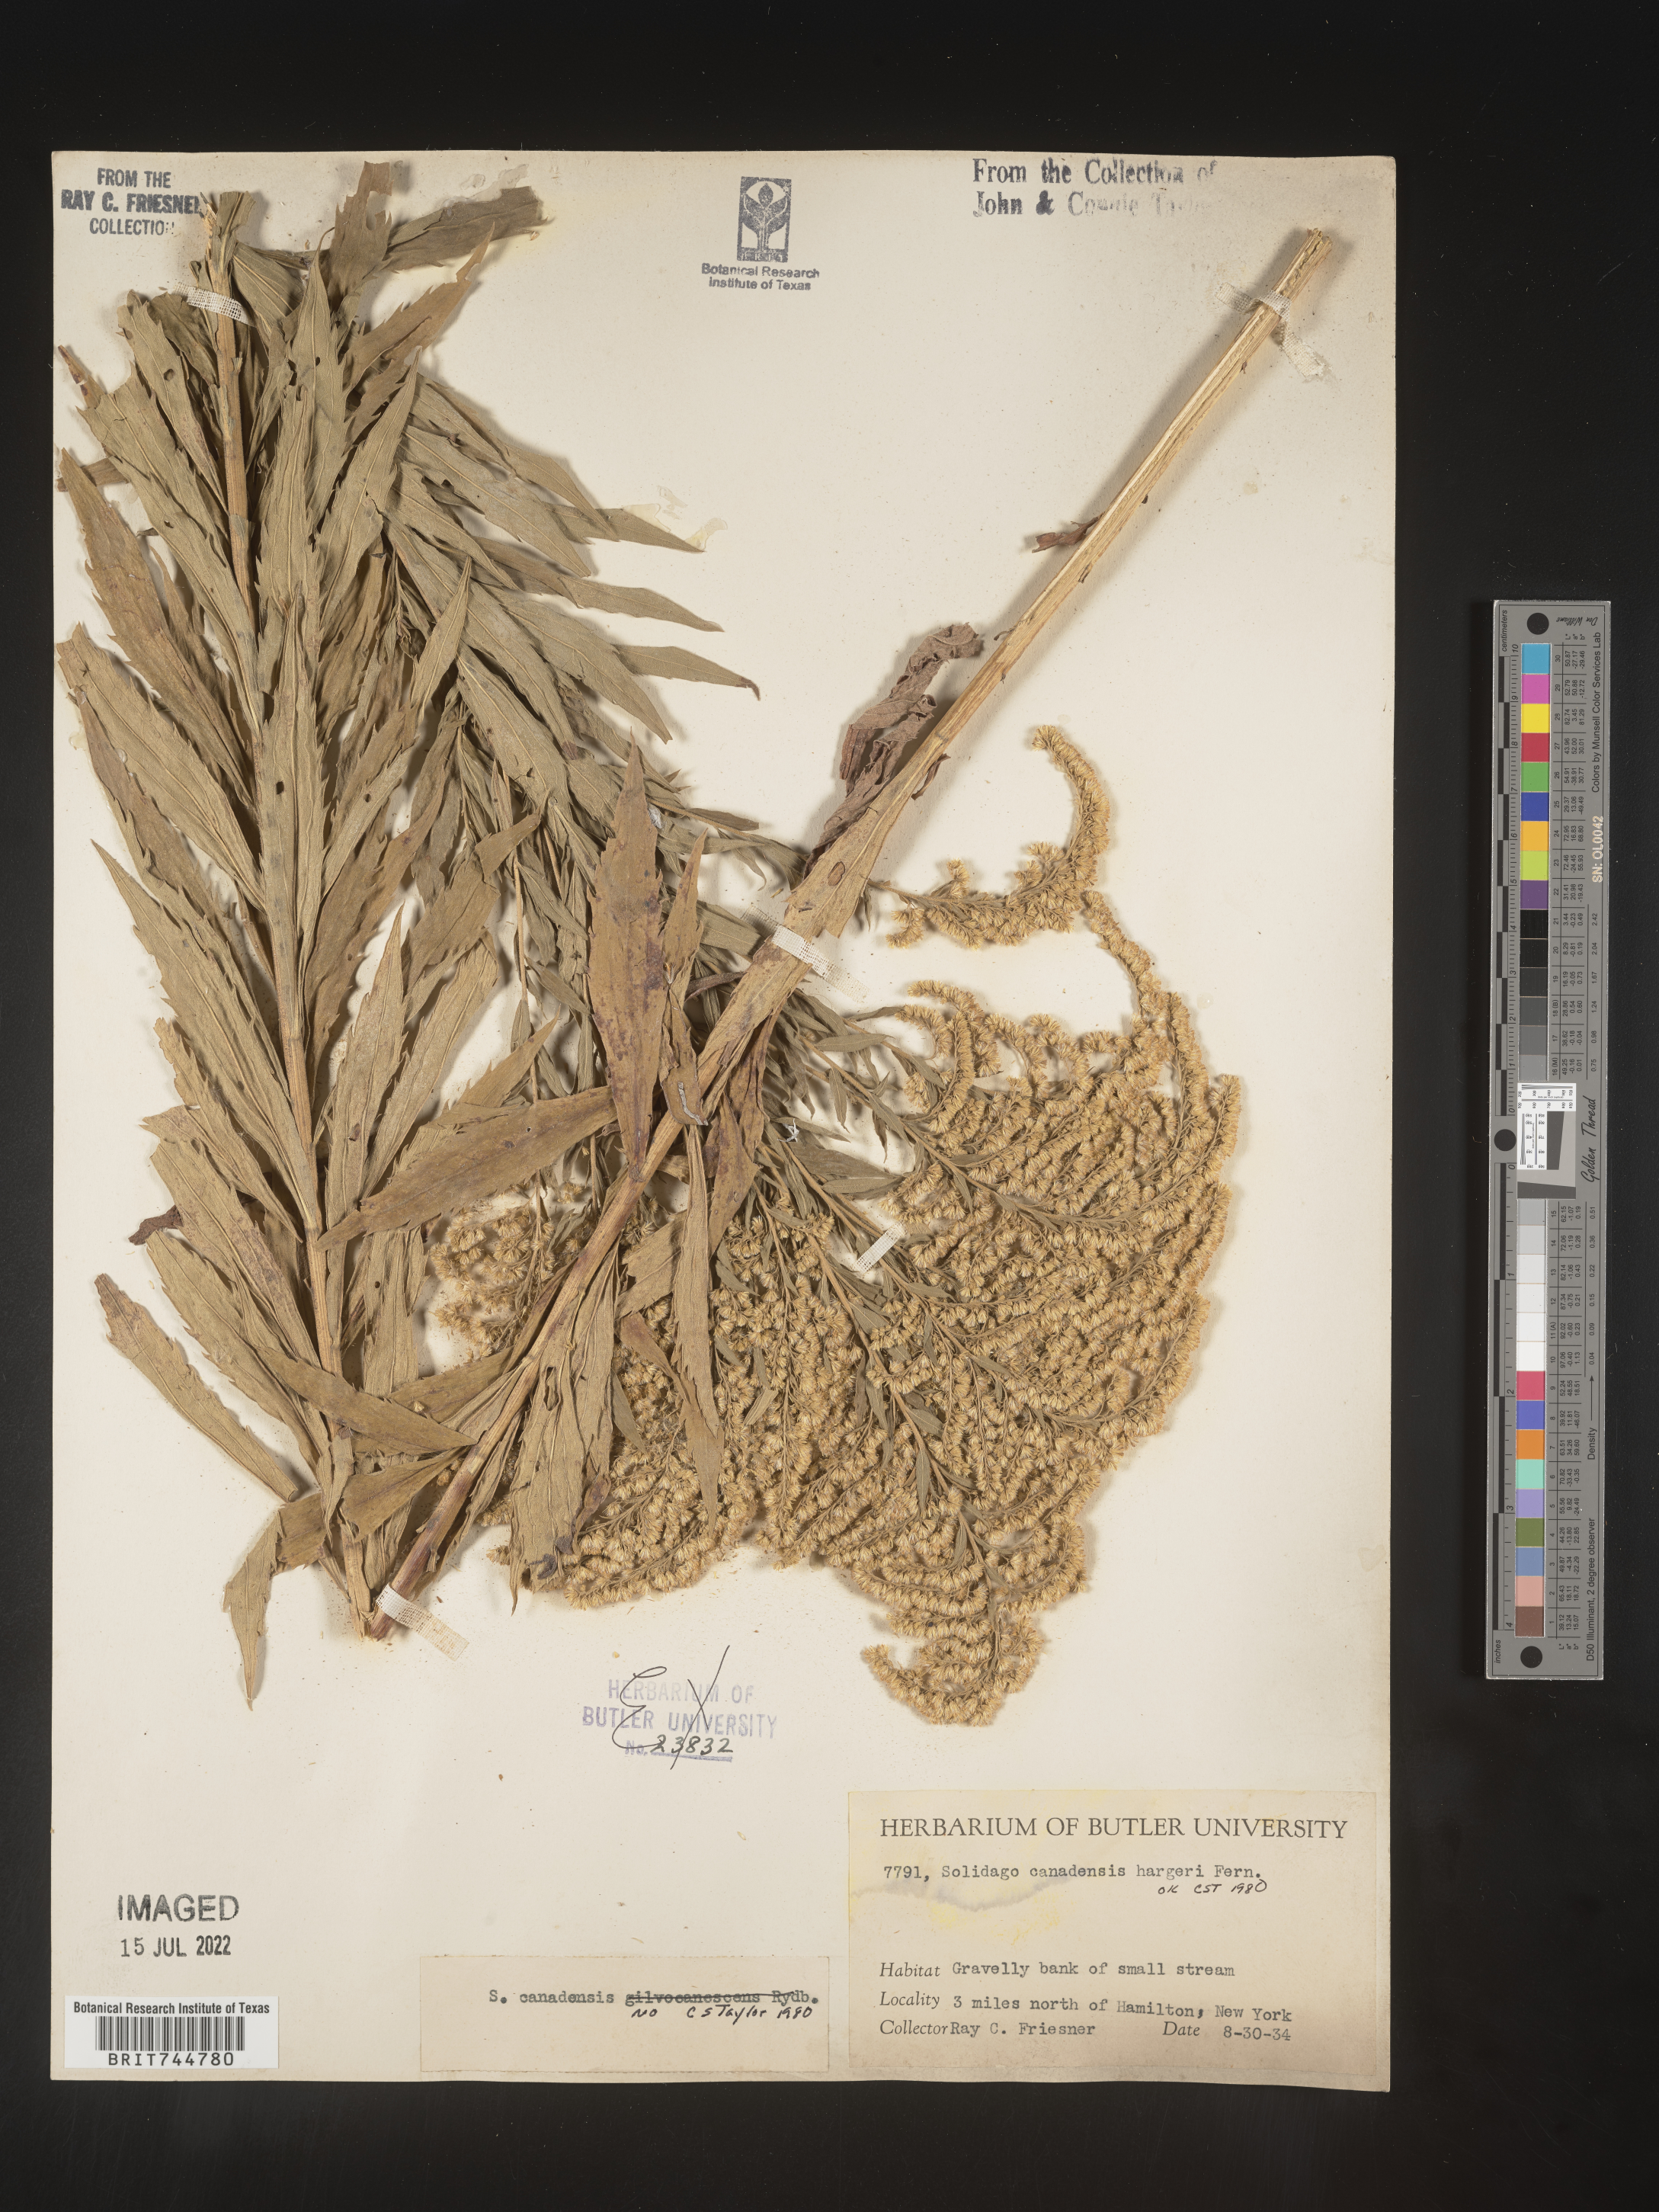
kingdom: Plantae
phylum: Tracheophyta
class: Magnoliopsida
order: Asterales
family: Asteraceae
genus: Solidago
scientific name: Solidago canadensis
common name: Canada goldenrod
